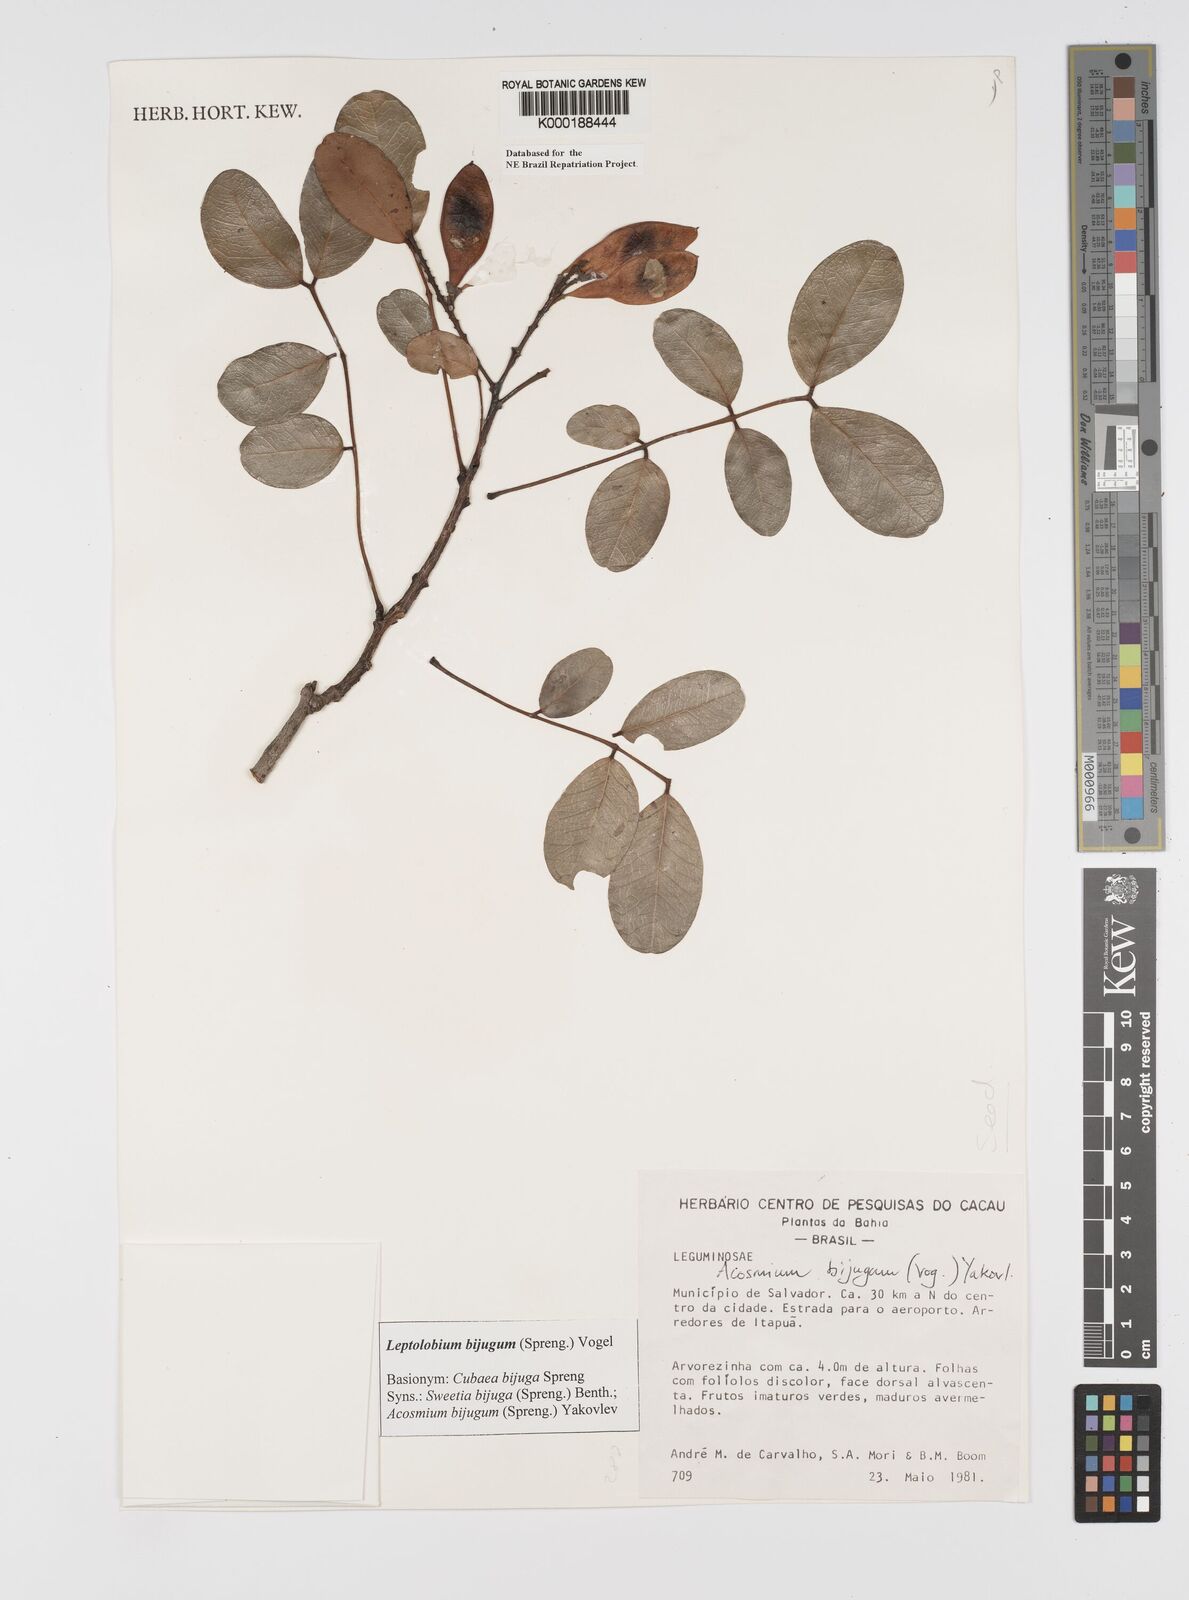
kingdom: Plantae
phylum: Tracheophyta
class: Magnoliopsida
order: Fabales
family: Fabaceae
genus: Leptolobium
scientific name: Leptolobium bijugum
